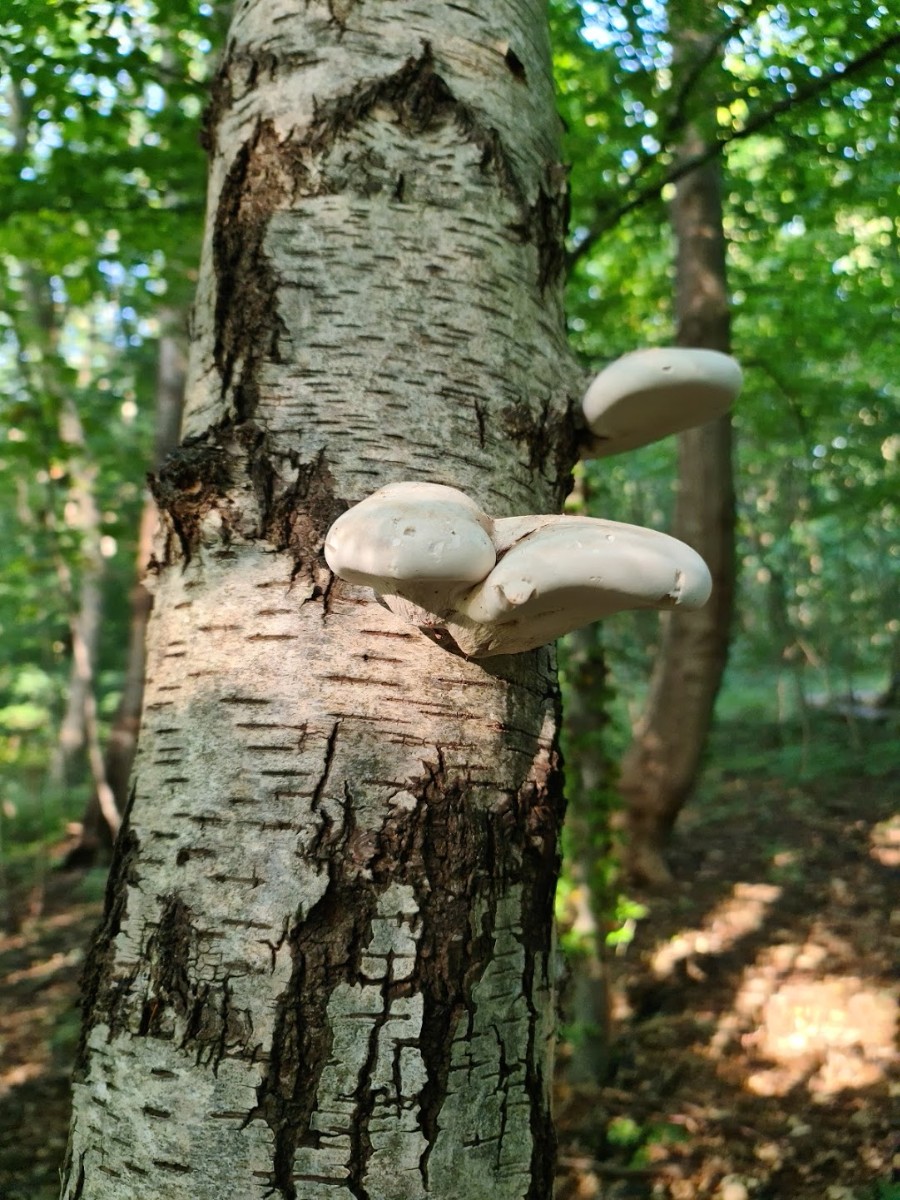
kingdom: Fungi
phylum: Basidiomycota
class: Agaricomycetes
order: Polyporales
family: Fomitopsidaceae
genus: Fomitopsis
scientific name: Fomitopsis betulina
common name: birkeporesvamp
